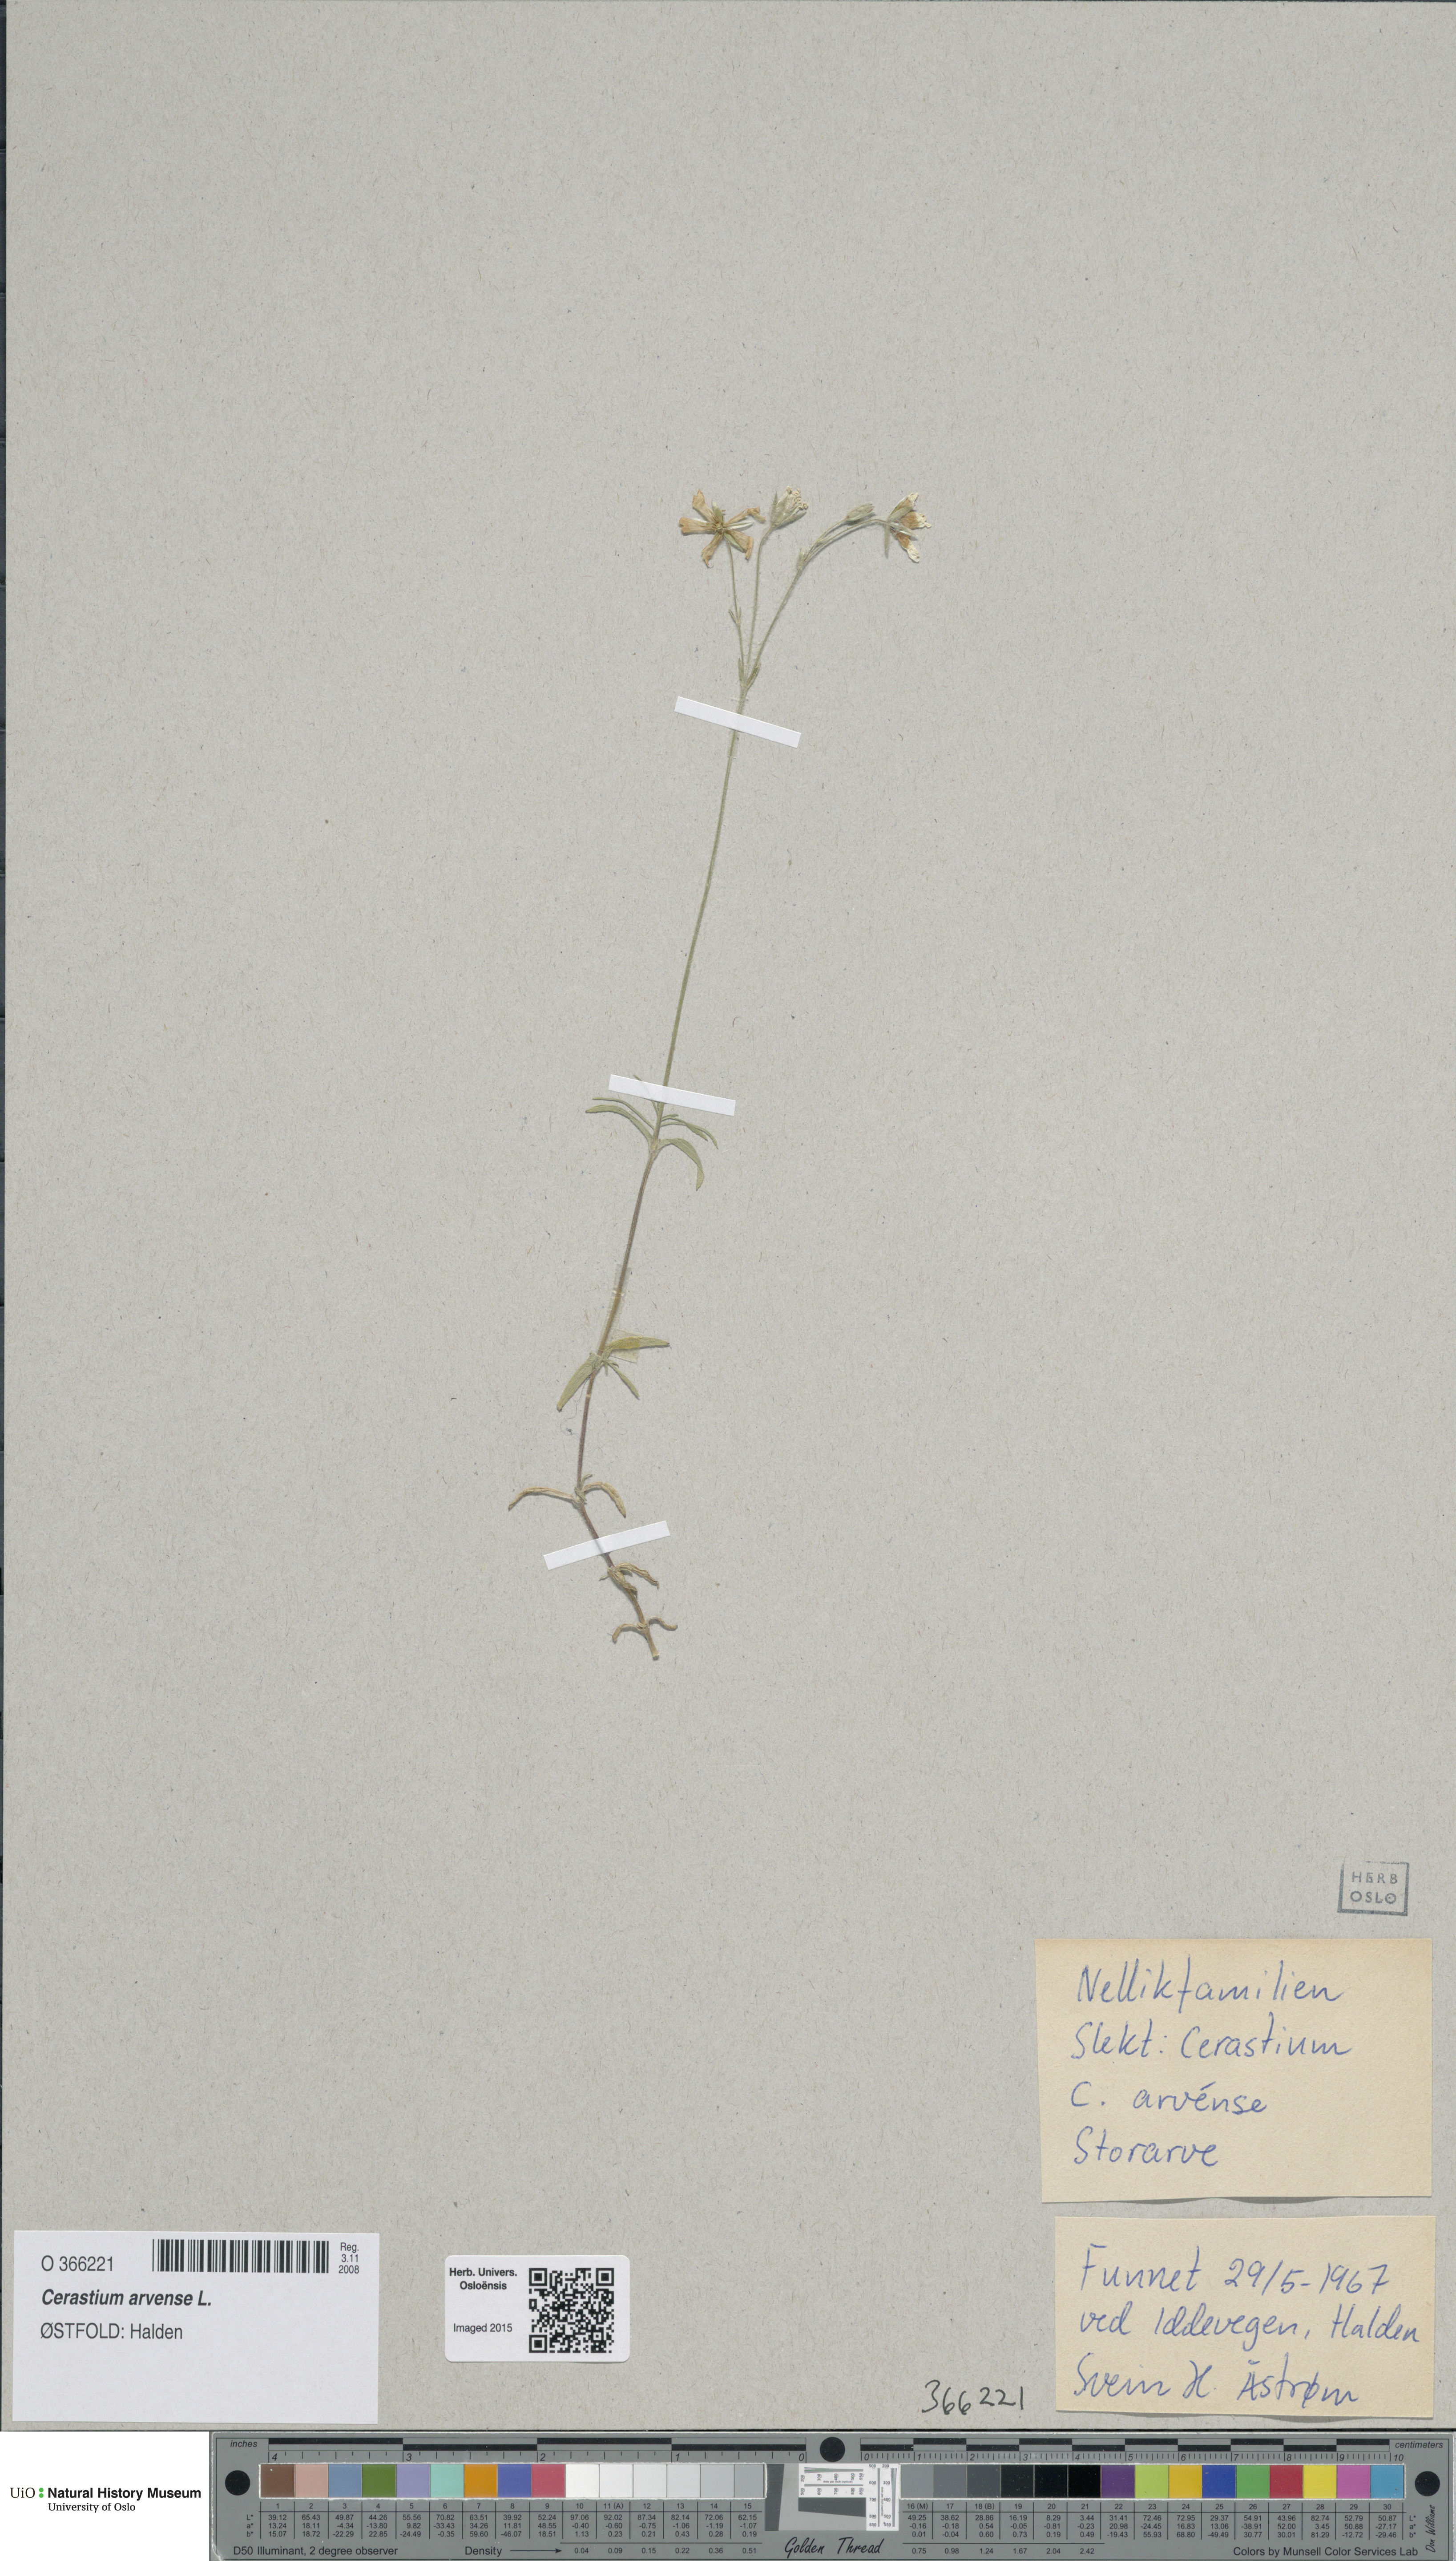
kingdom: Plantae
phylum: Tracheophyta
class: Magnoliopsida
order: Caryophyllales
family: Caryophyllaceae
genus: Cerastium
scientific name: Cerastium arvense
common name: Field mouse-ear
